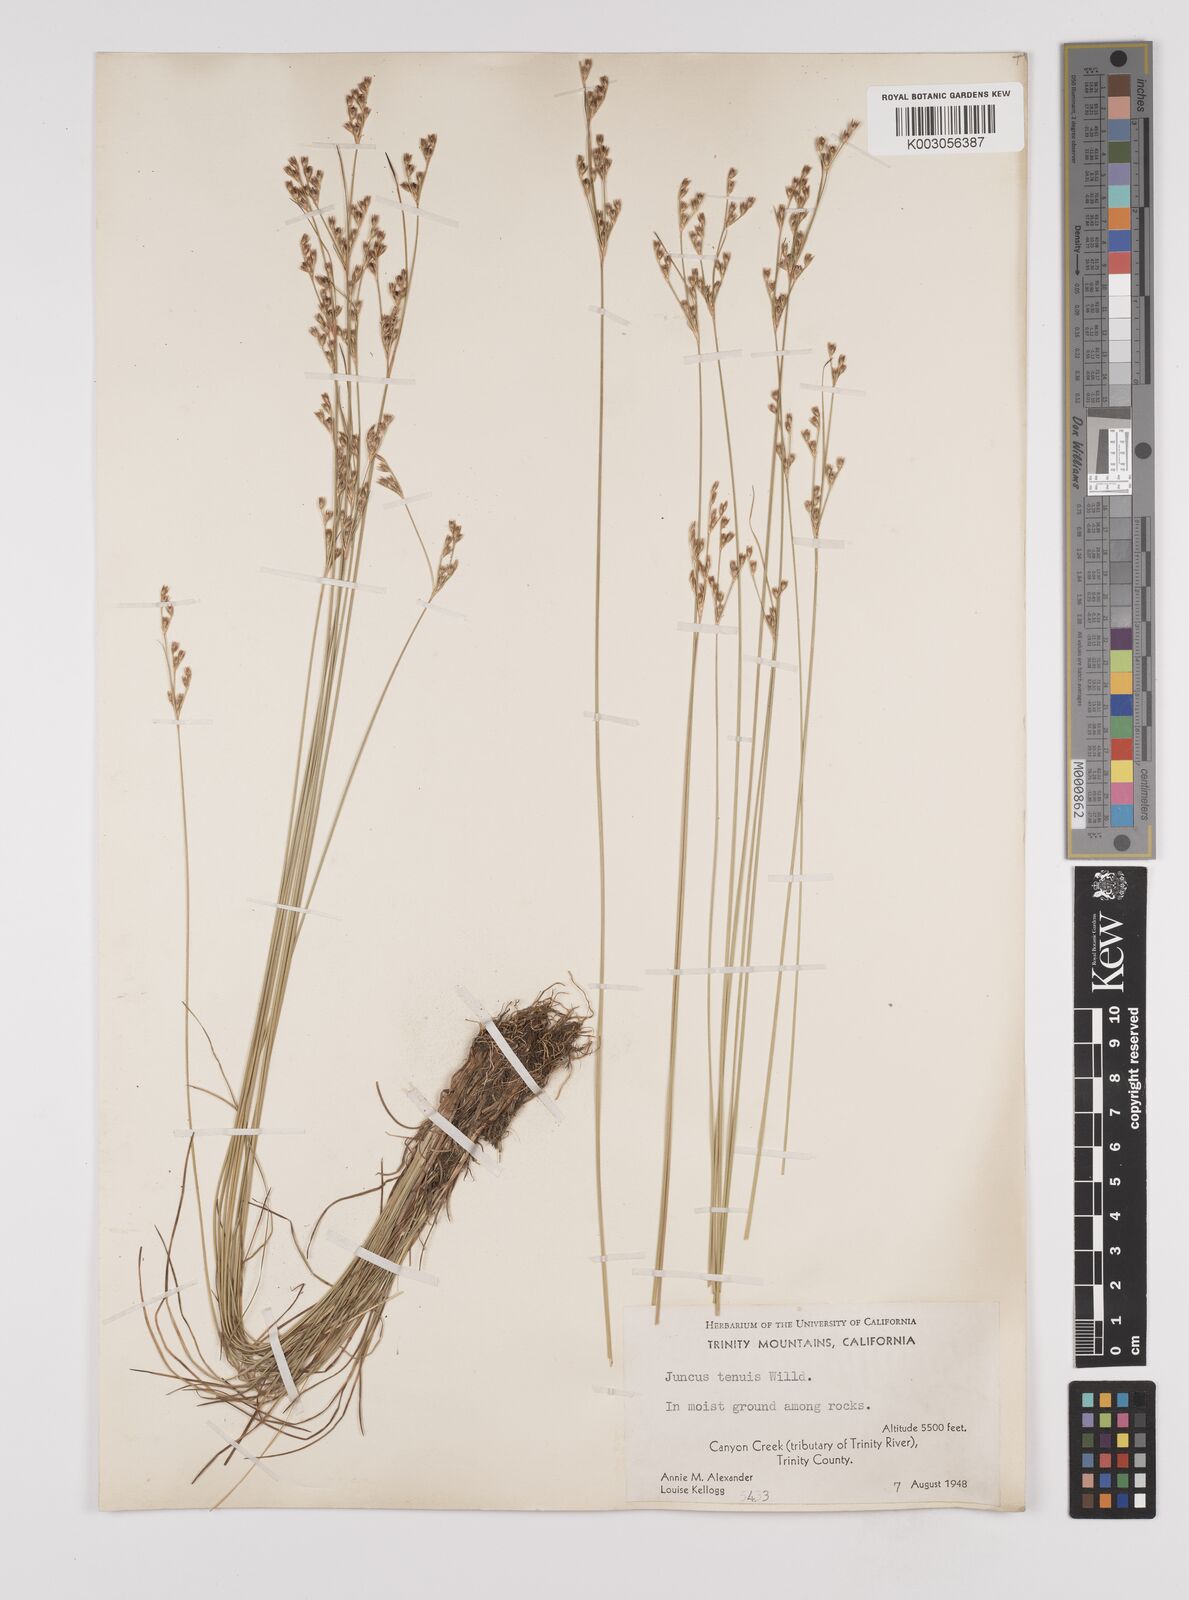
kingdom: Plantae
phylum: Tracheophyta
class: Liliopsida
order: Poales
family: Juncaceae
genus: Juncus
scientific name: Juncus tenuis
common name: Slender rush
